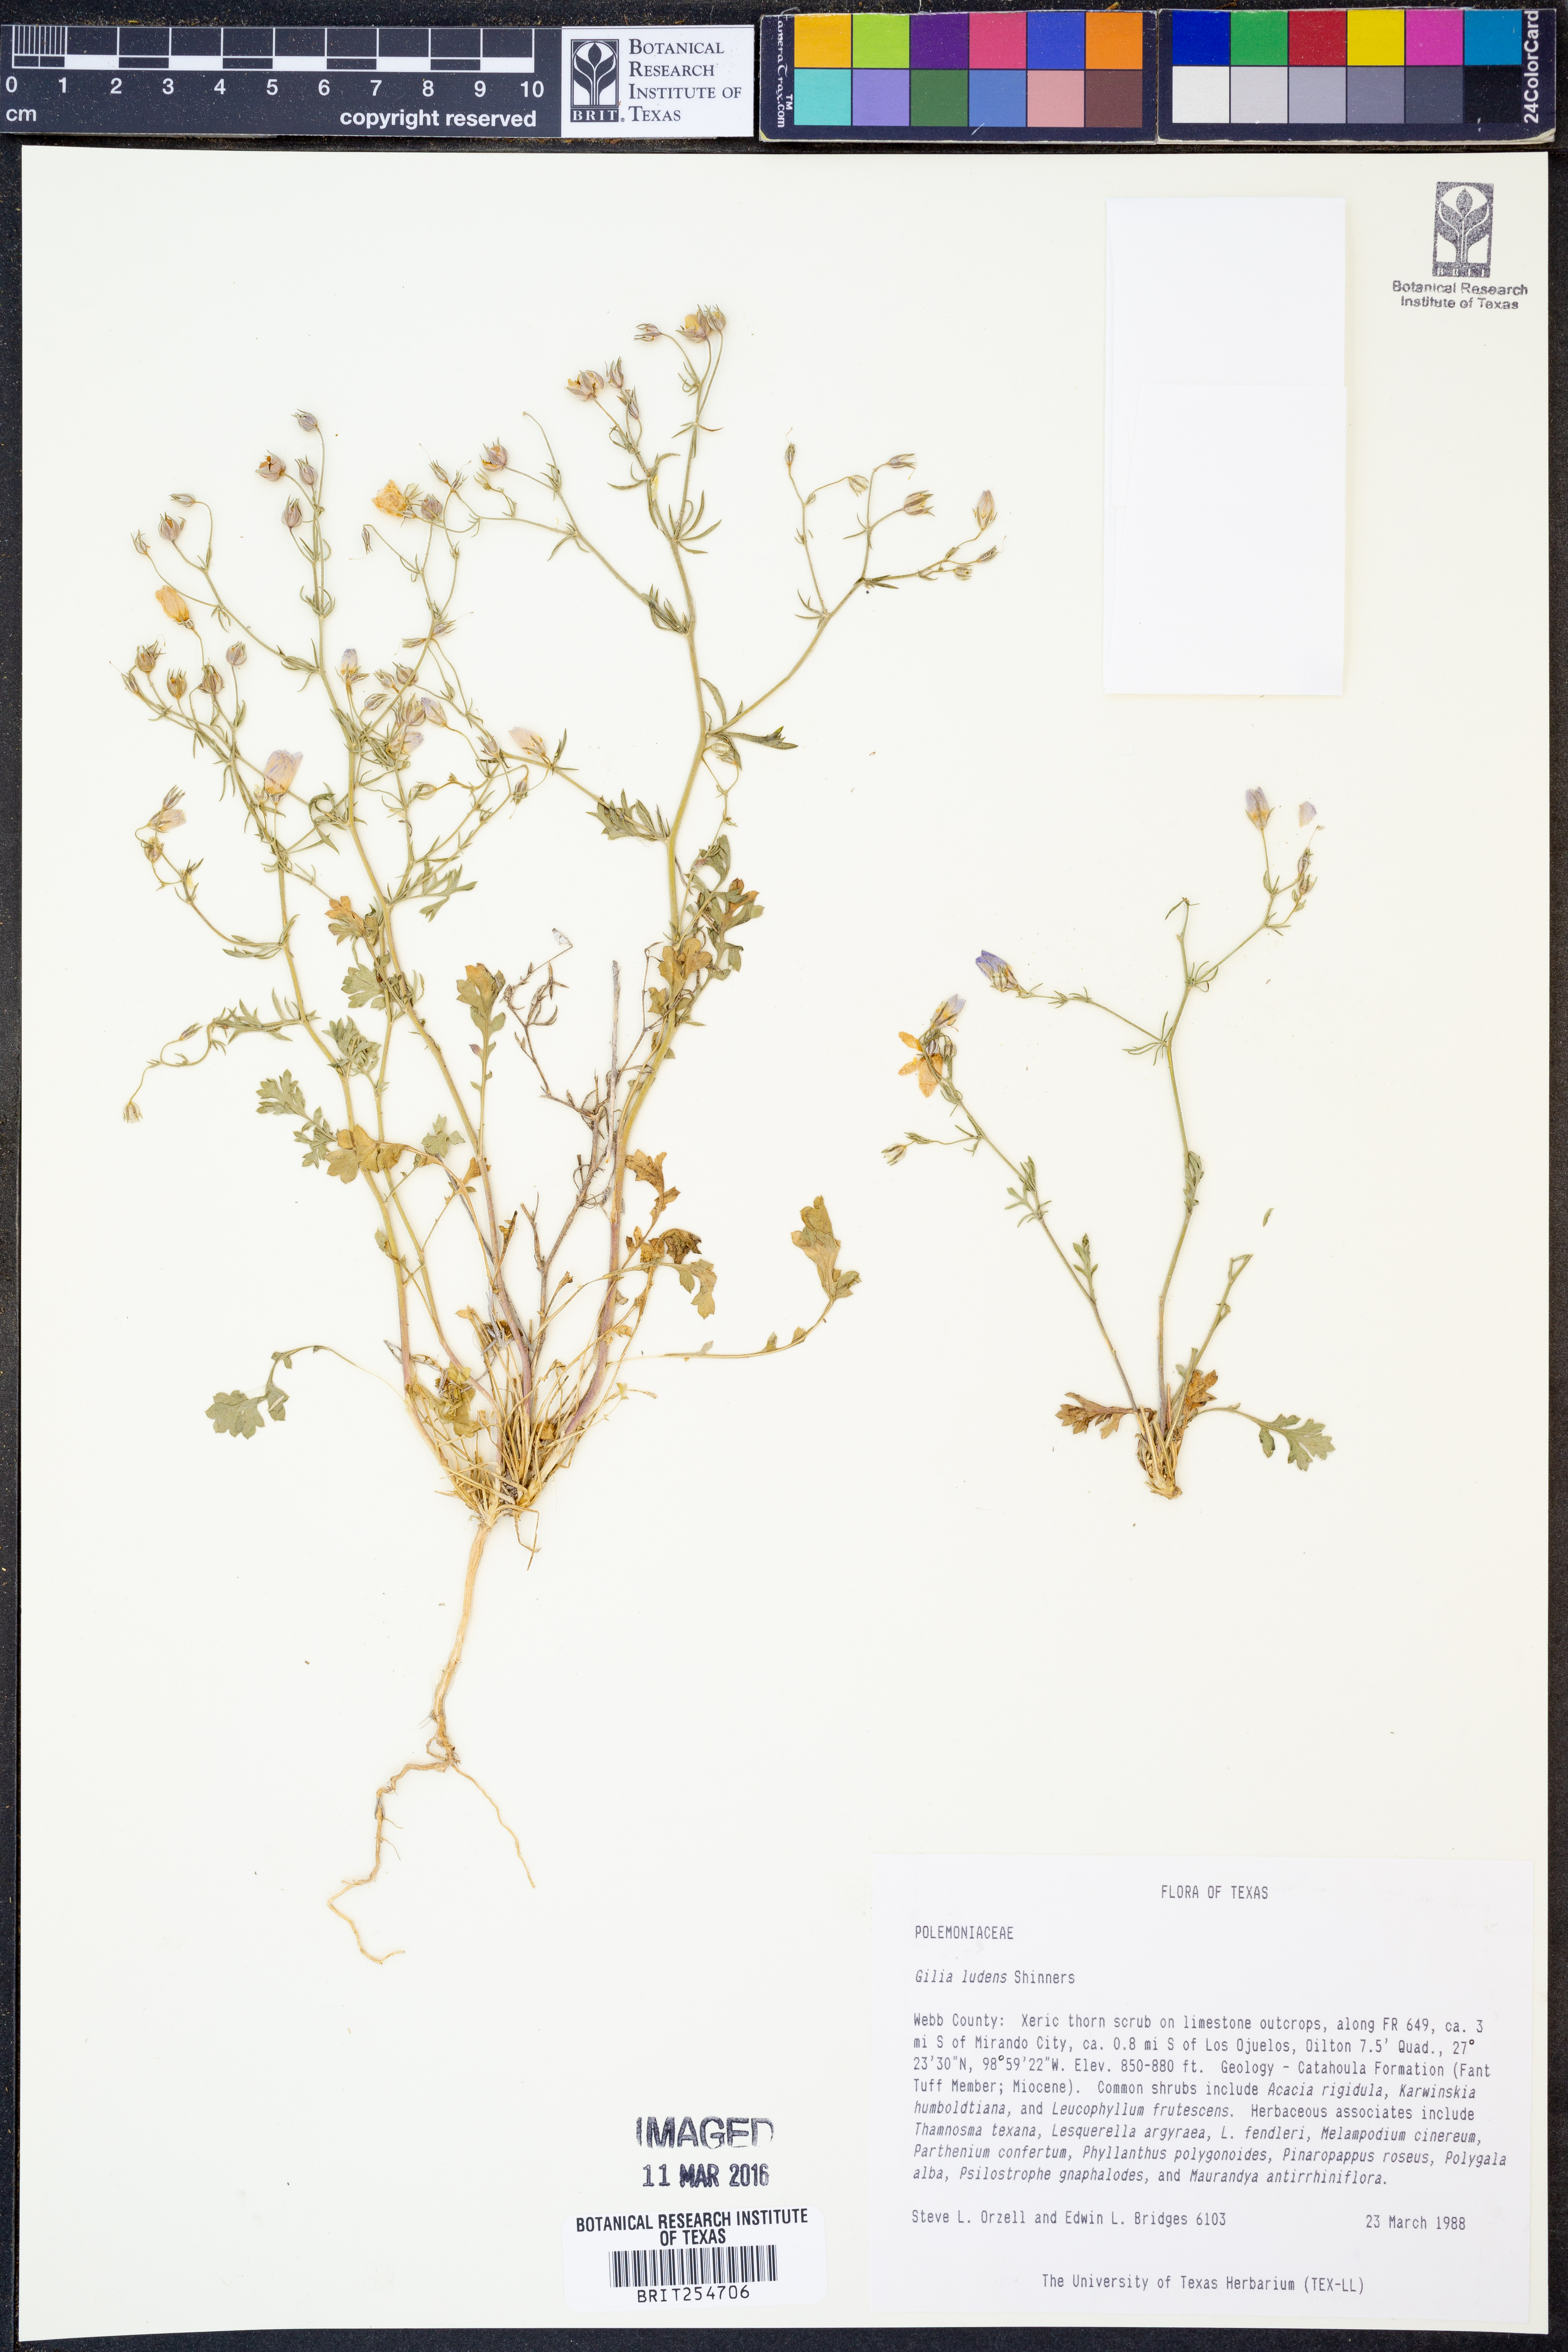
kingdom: Plantae
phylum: Tracheophyta
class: Magnoliopsida
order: Ericales
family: Polemoniaceae
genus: Giliastrum
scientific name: Giliastrum ludens
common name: Rio grande gilia
